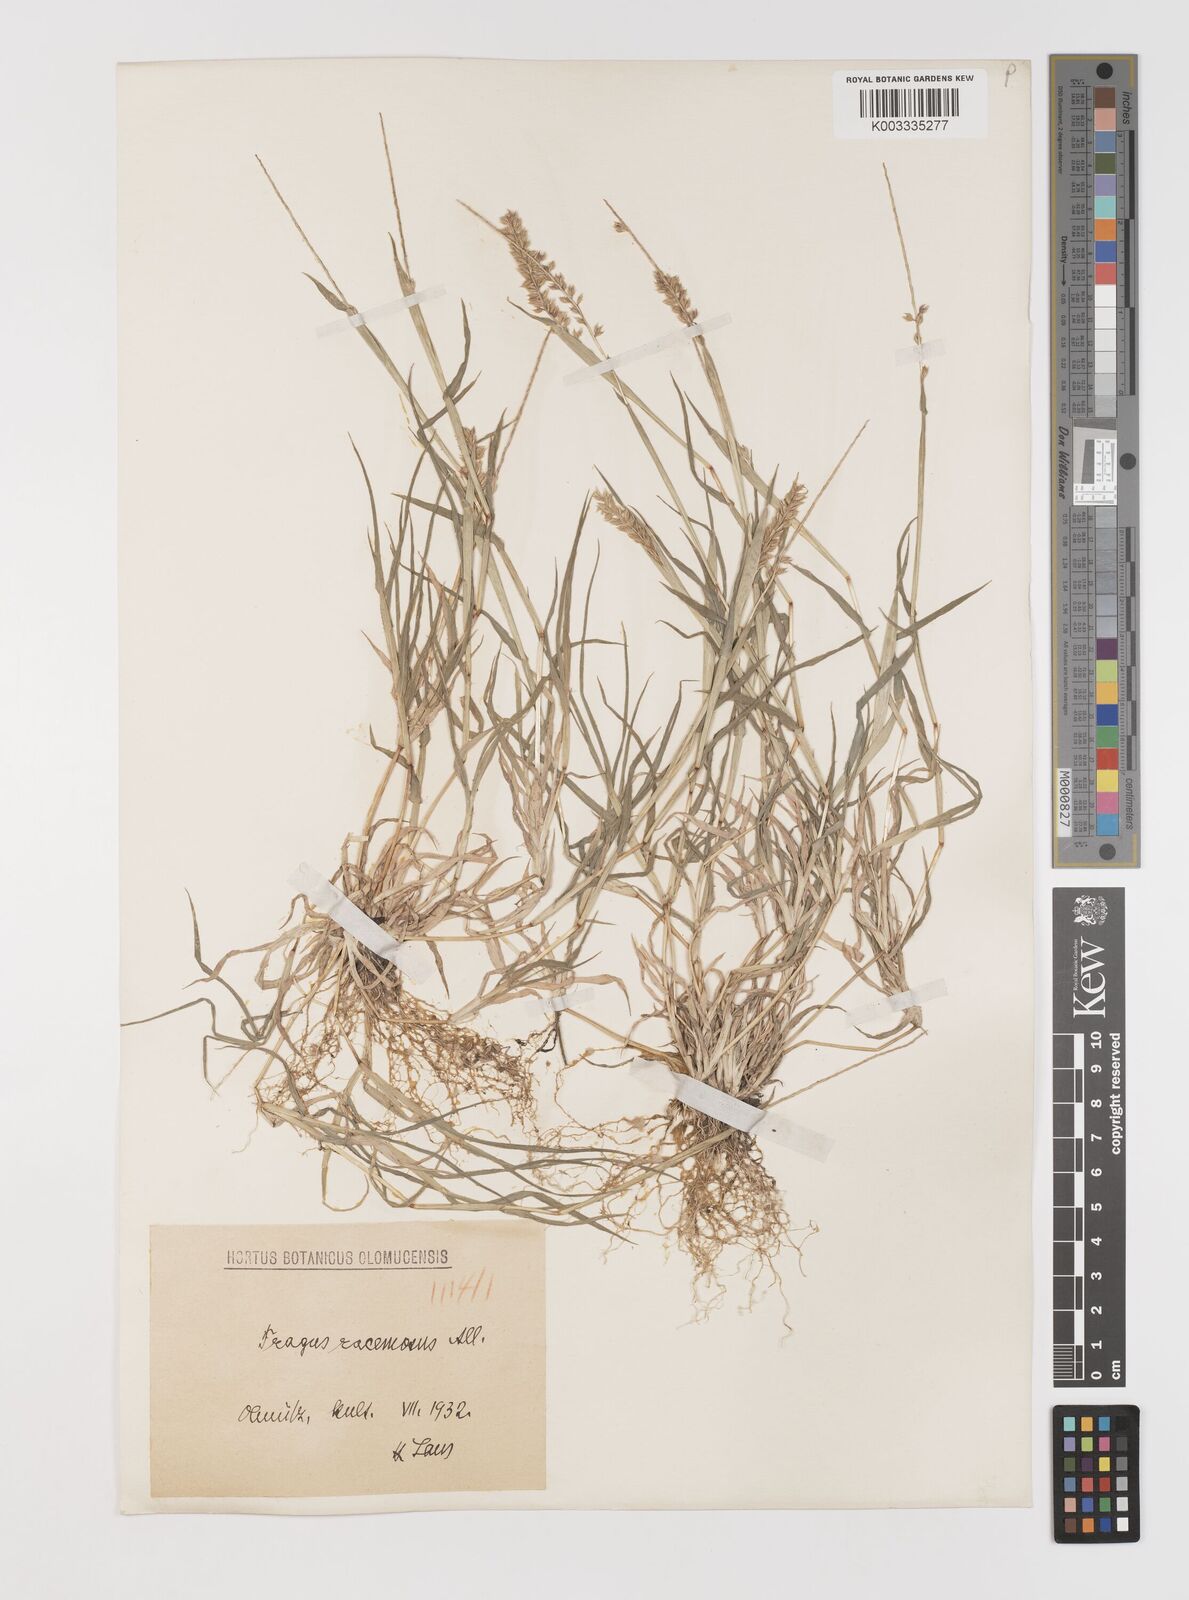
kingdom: Plantae
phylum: Tracheophyta
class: Liliopsida
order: Poales
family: Poaceae
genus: Tragus
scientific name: Tragus racemosus
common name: European bur-grass
